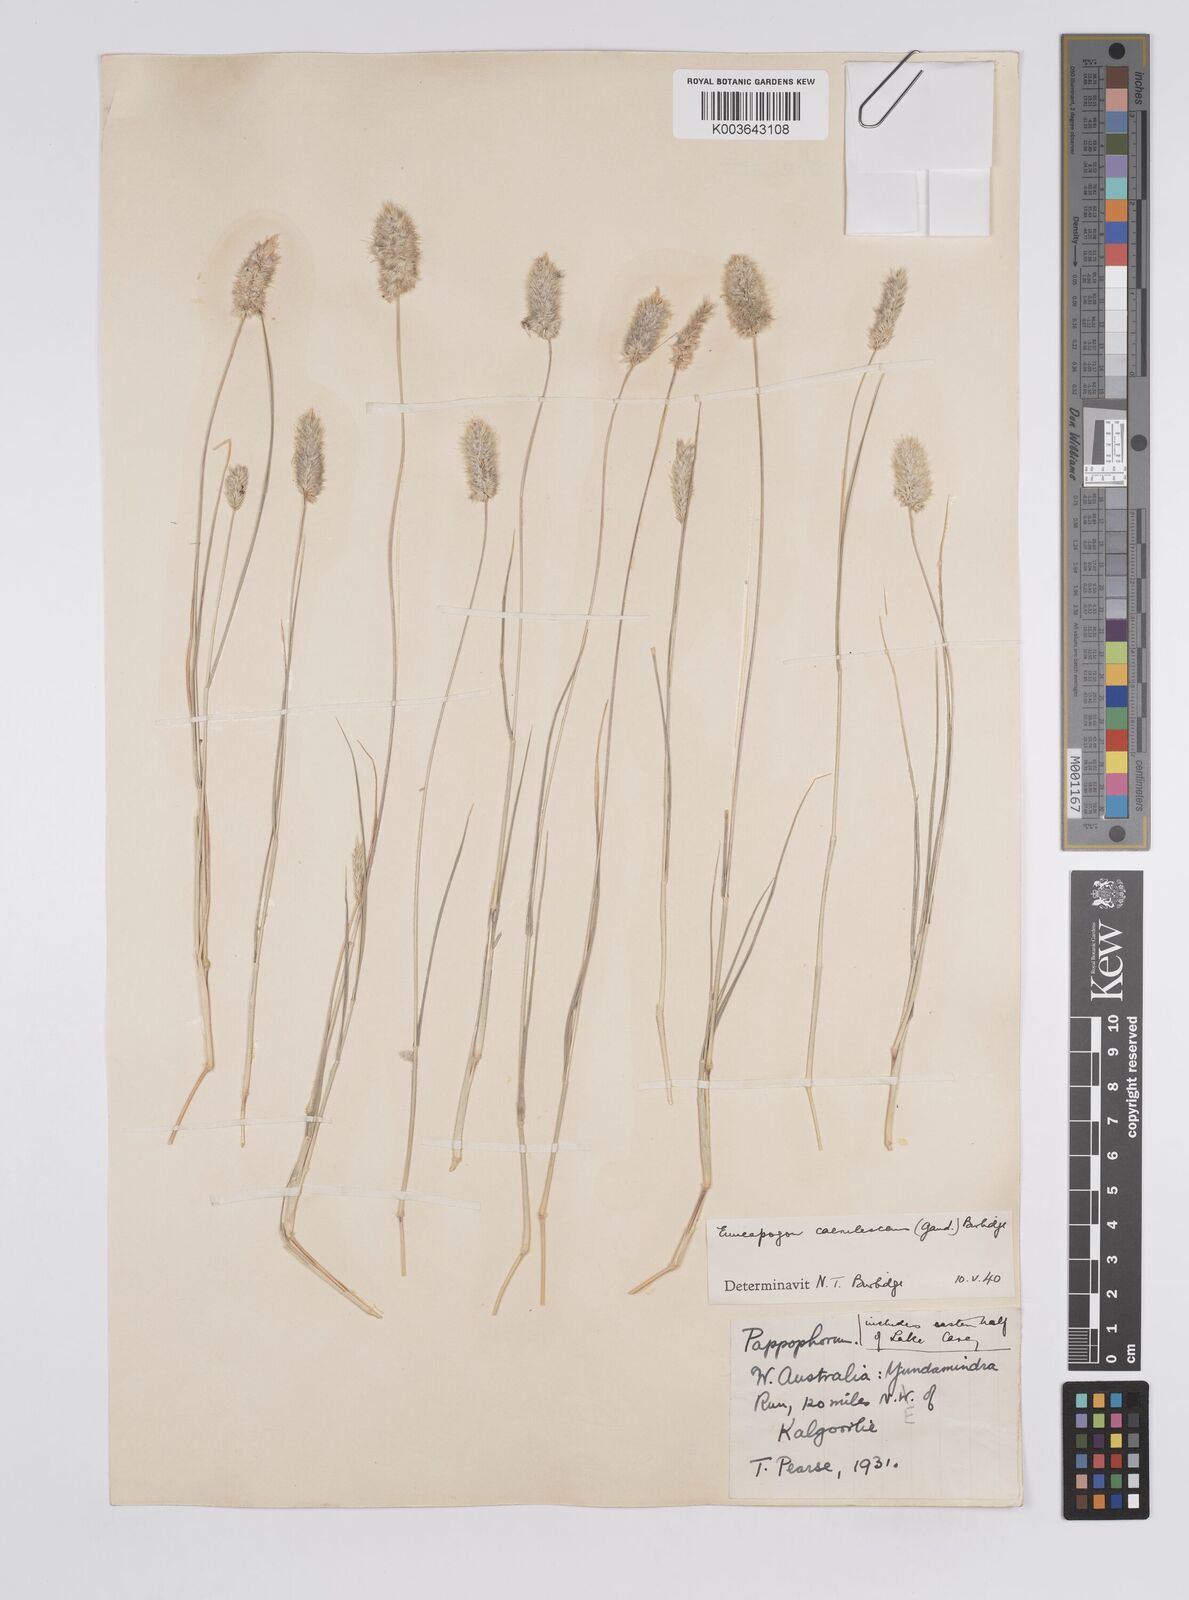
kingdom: Plantae
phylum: Tracheophyta
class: Liliopsida
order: Poales
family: Poaceae
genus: Enneapogon
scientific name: Enneapogon caerulescens
